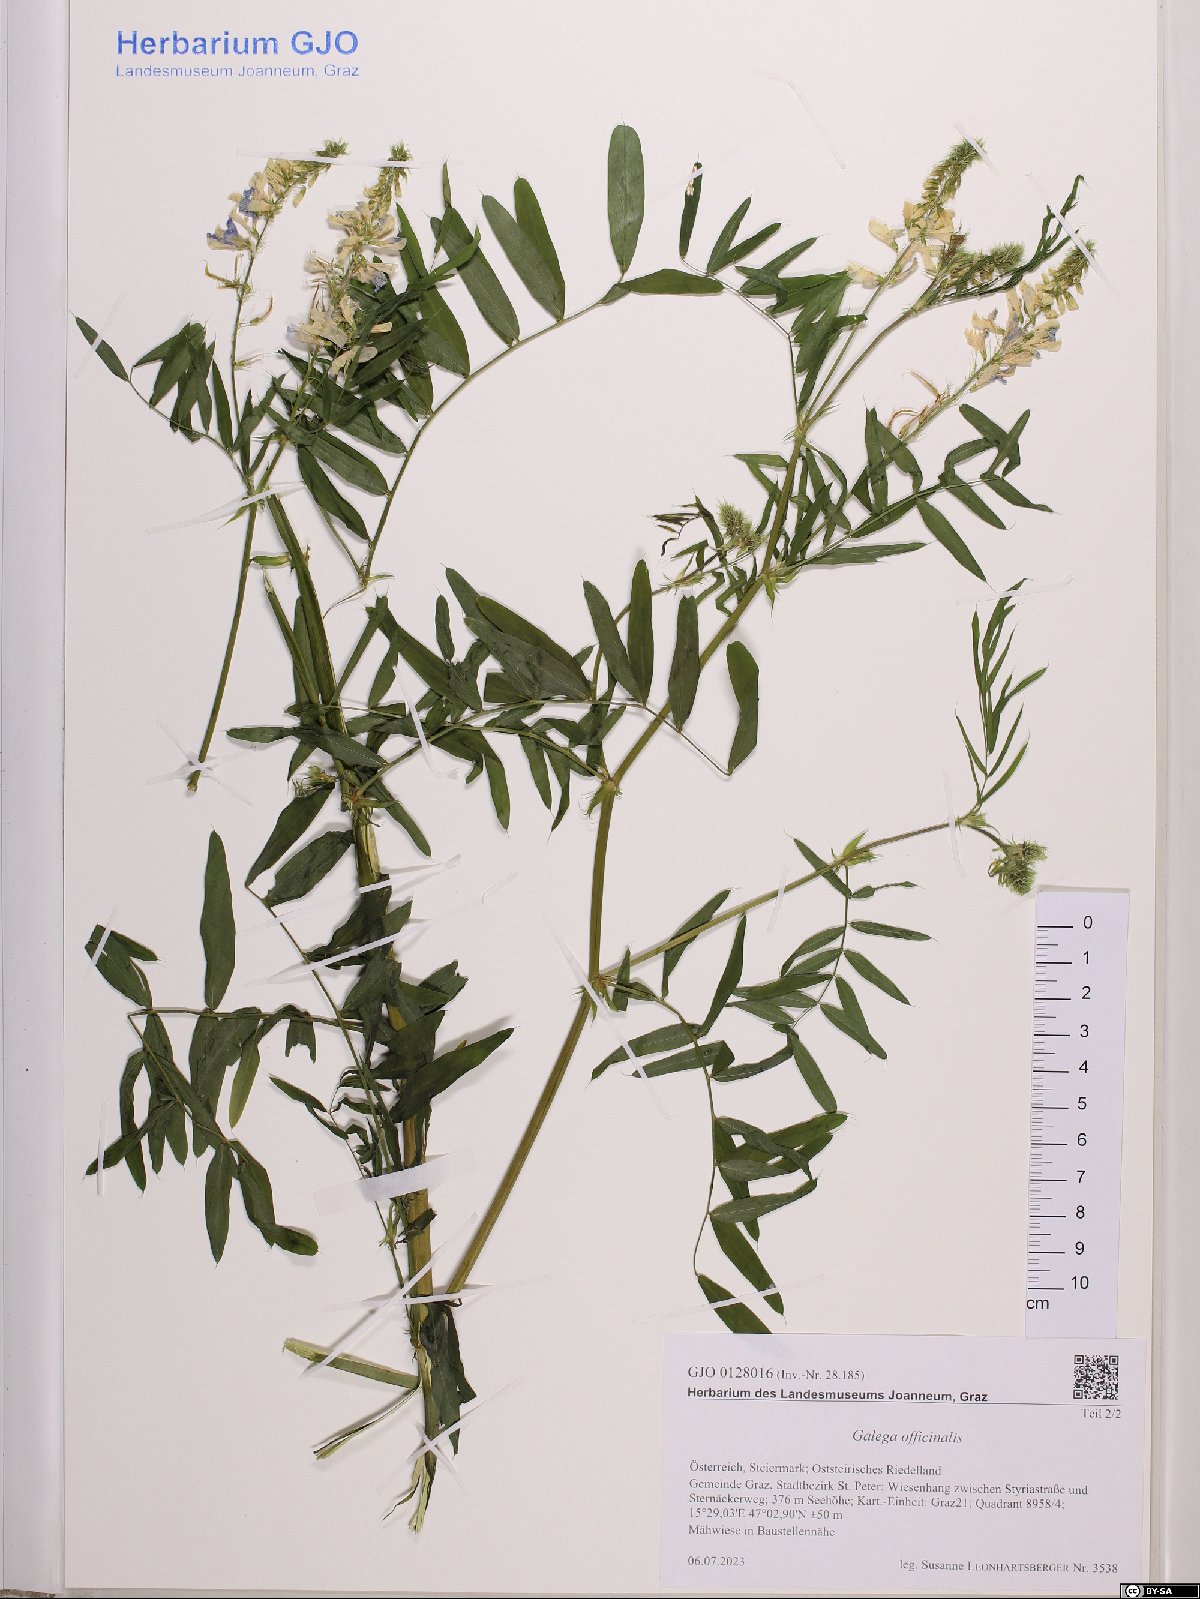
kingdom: Plantae
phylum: Tracheophyta
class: Magnoliopsida
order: Fabales
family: Fabaceae
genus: Galega
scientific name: Galega officinalis
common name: Goat's-rue
